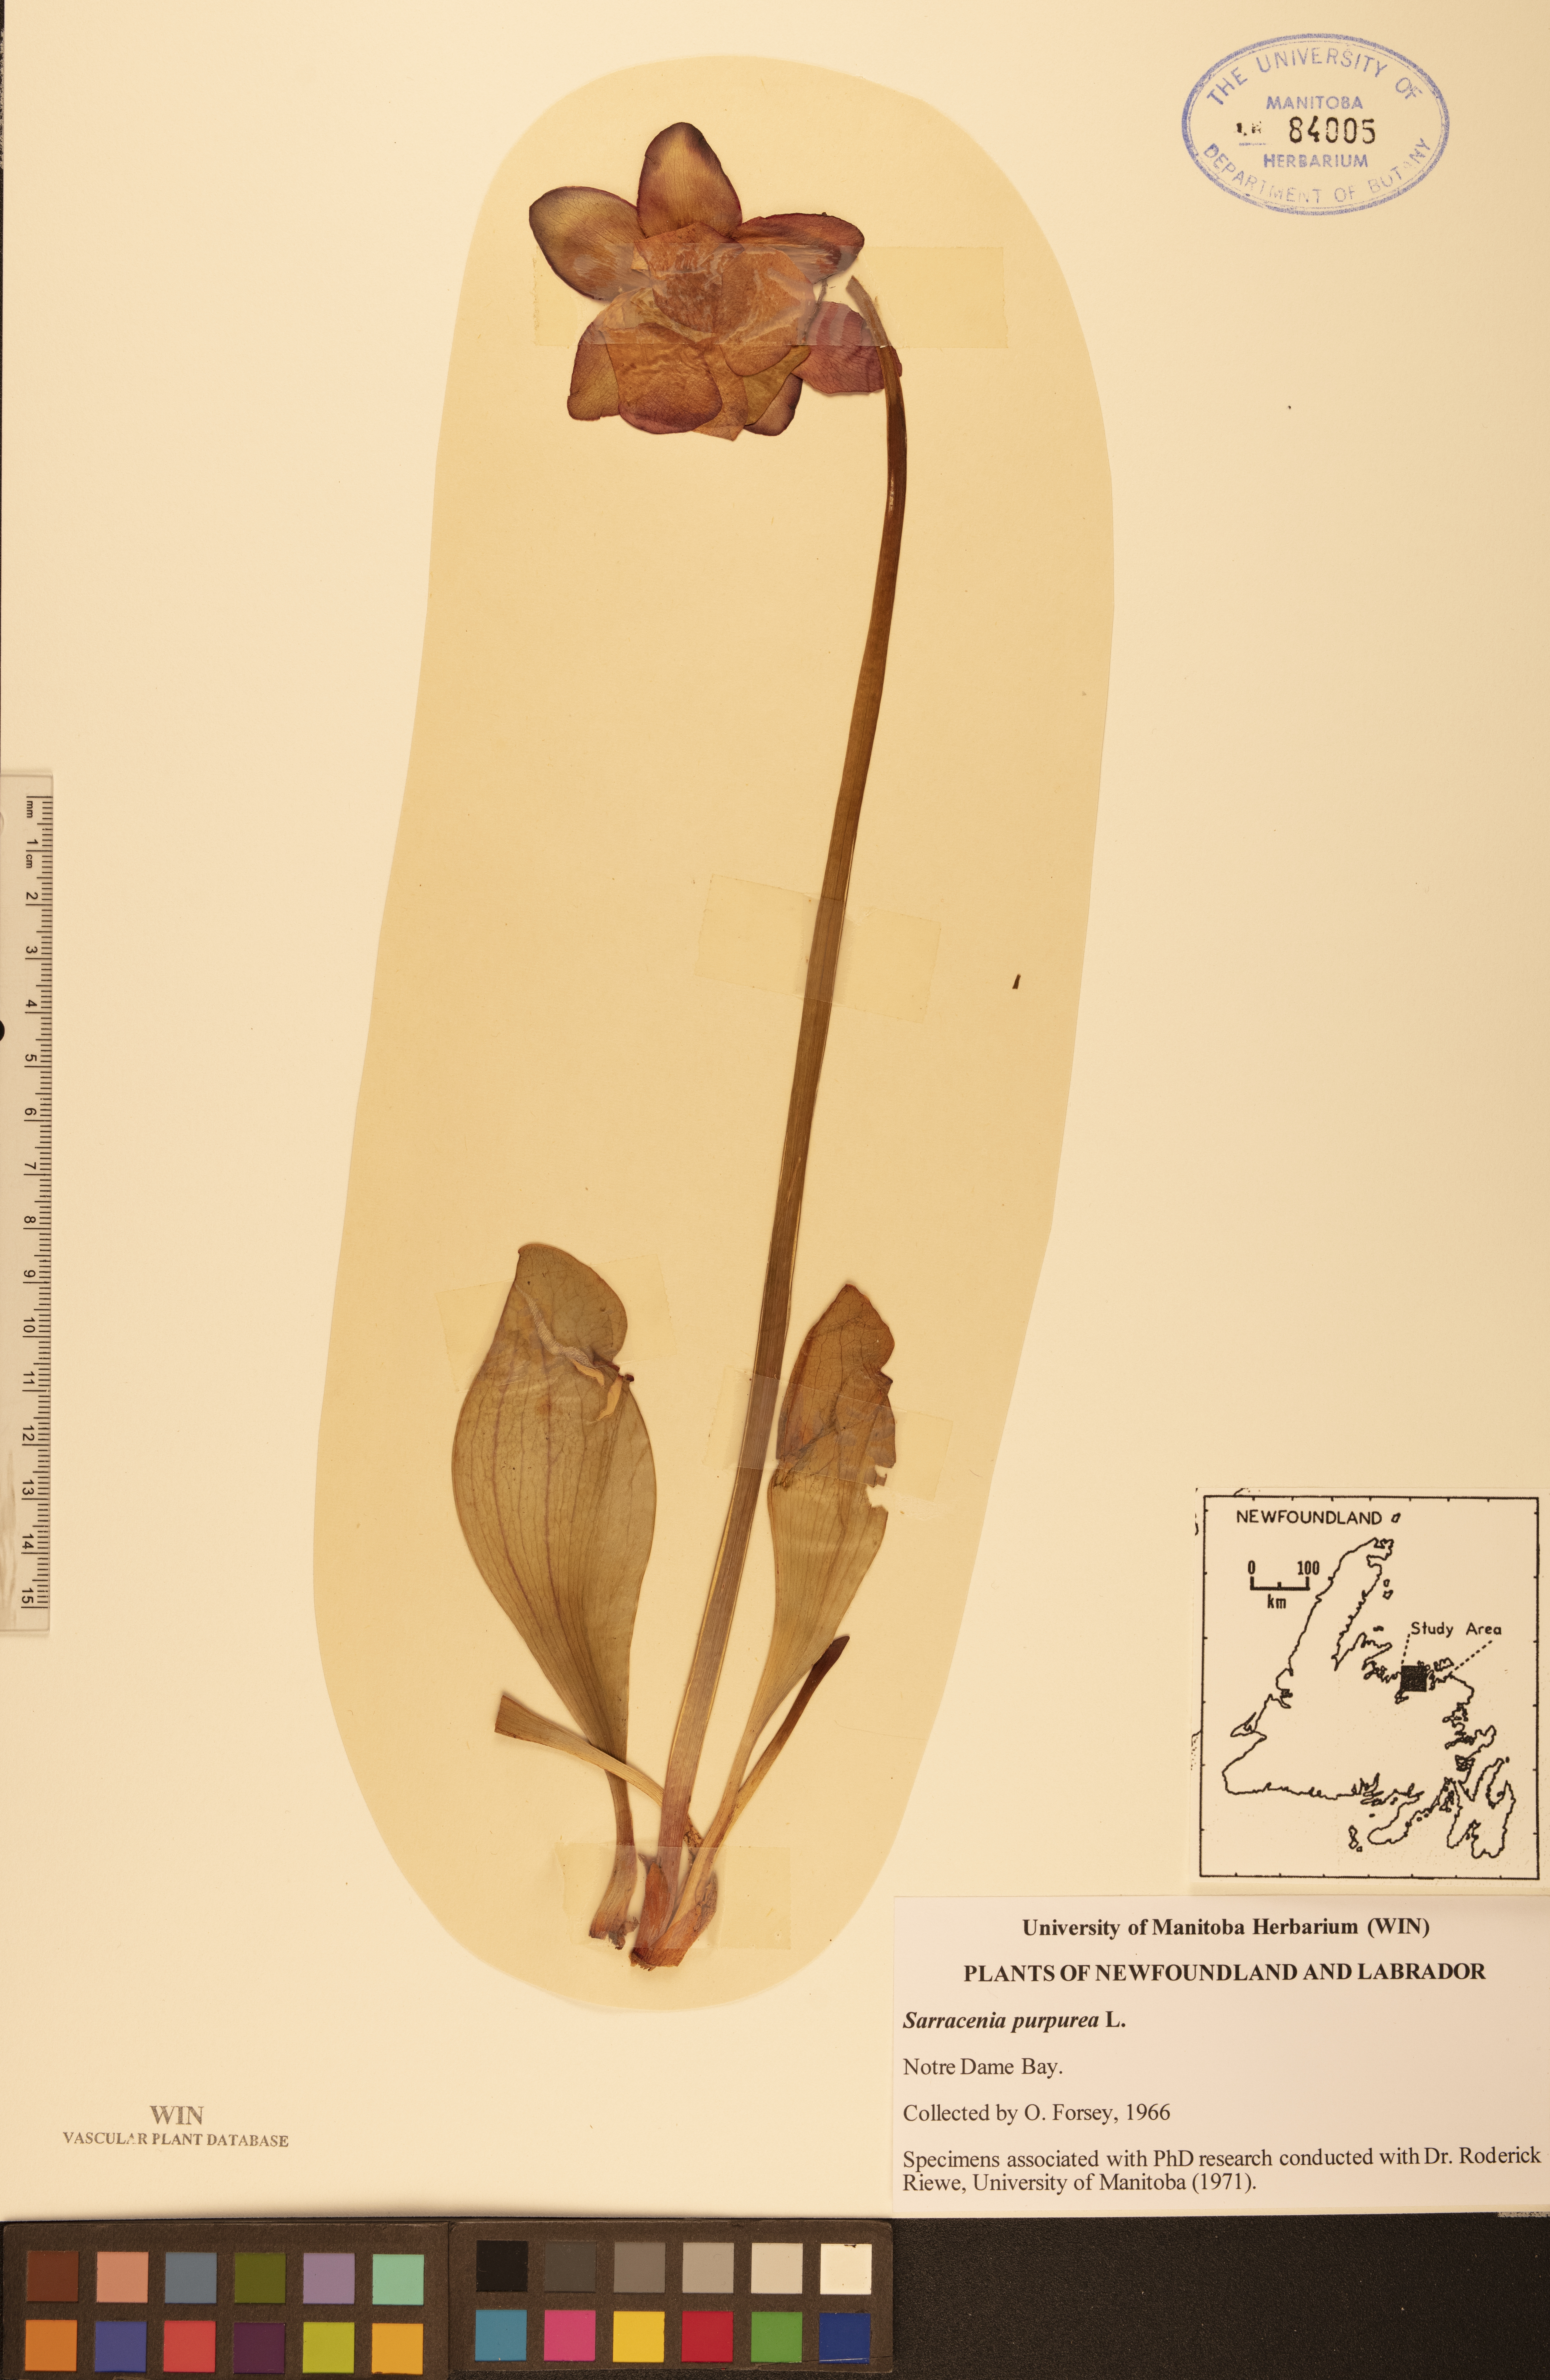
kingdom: Plantae
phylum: Tracheophyta
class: Magnoliopsida
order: Ericales
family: Sarraceniaceae
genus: Sarracenia
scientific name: Sarracenia purpurea
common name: Pitcherplant
